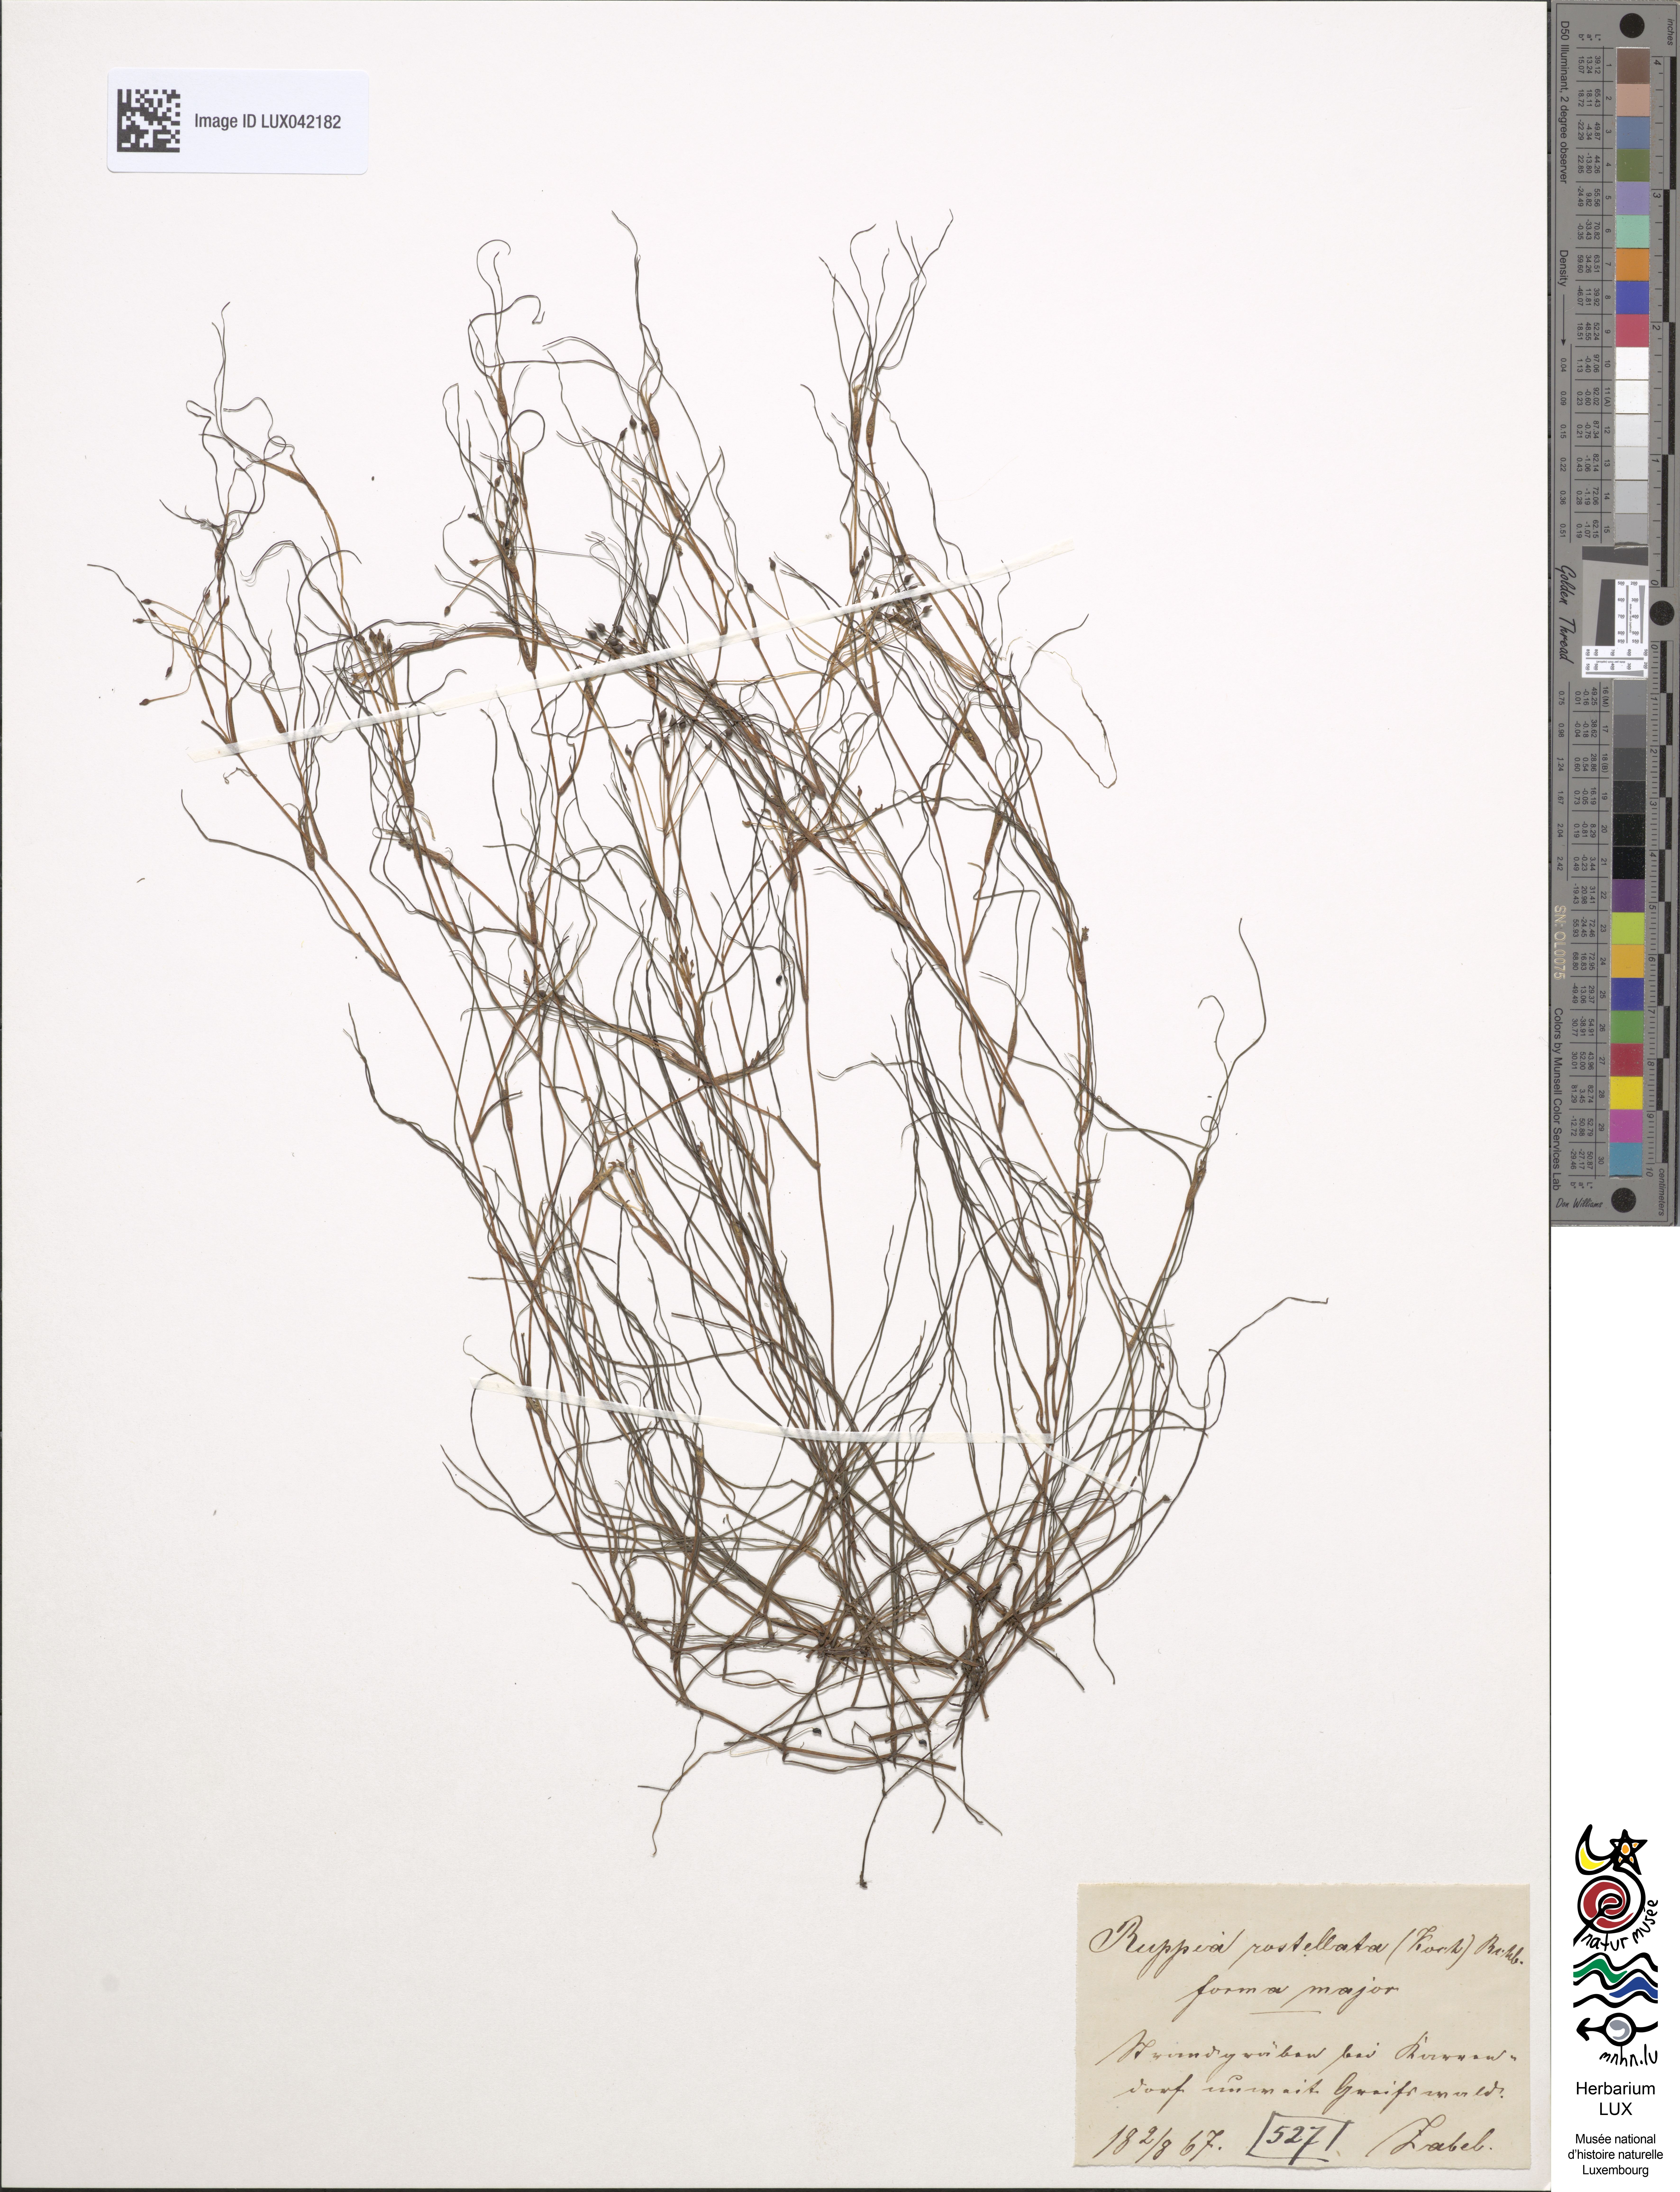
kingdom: Plantae
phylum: Tracheophyta
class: Liliopsida
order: Alismatales
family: Ruppiaceae
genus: Ruppia
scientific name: Ruppia maritima
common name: Beaked tasselweed
